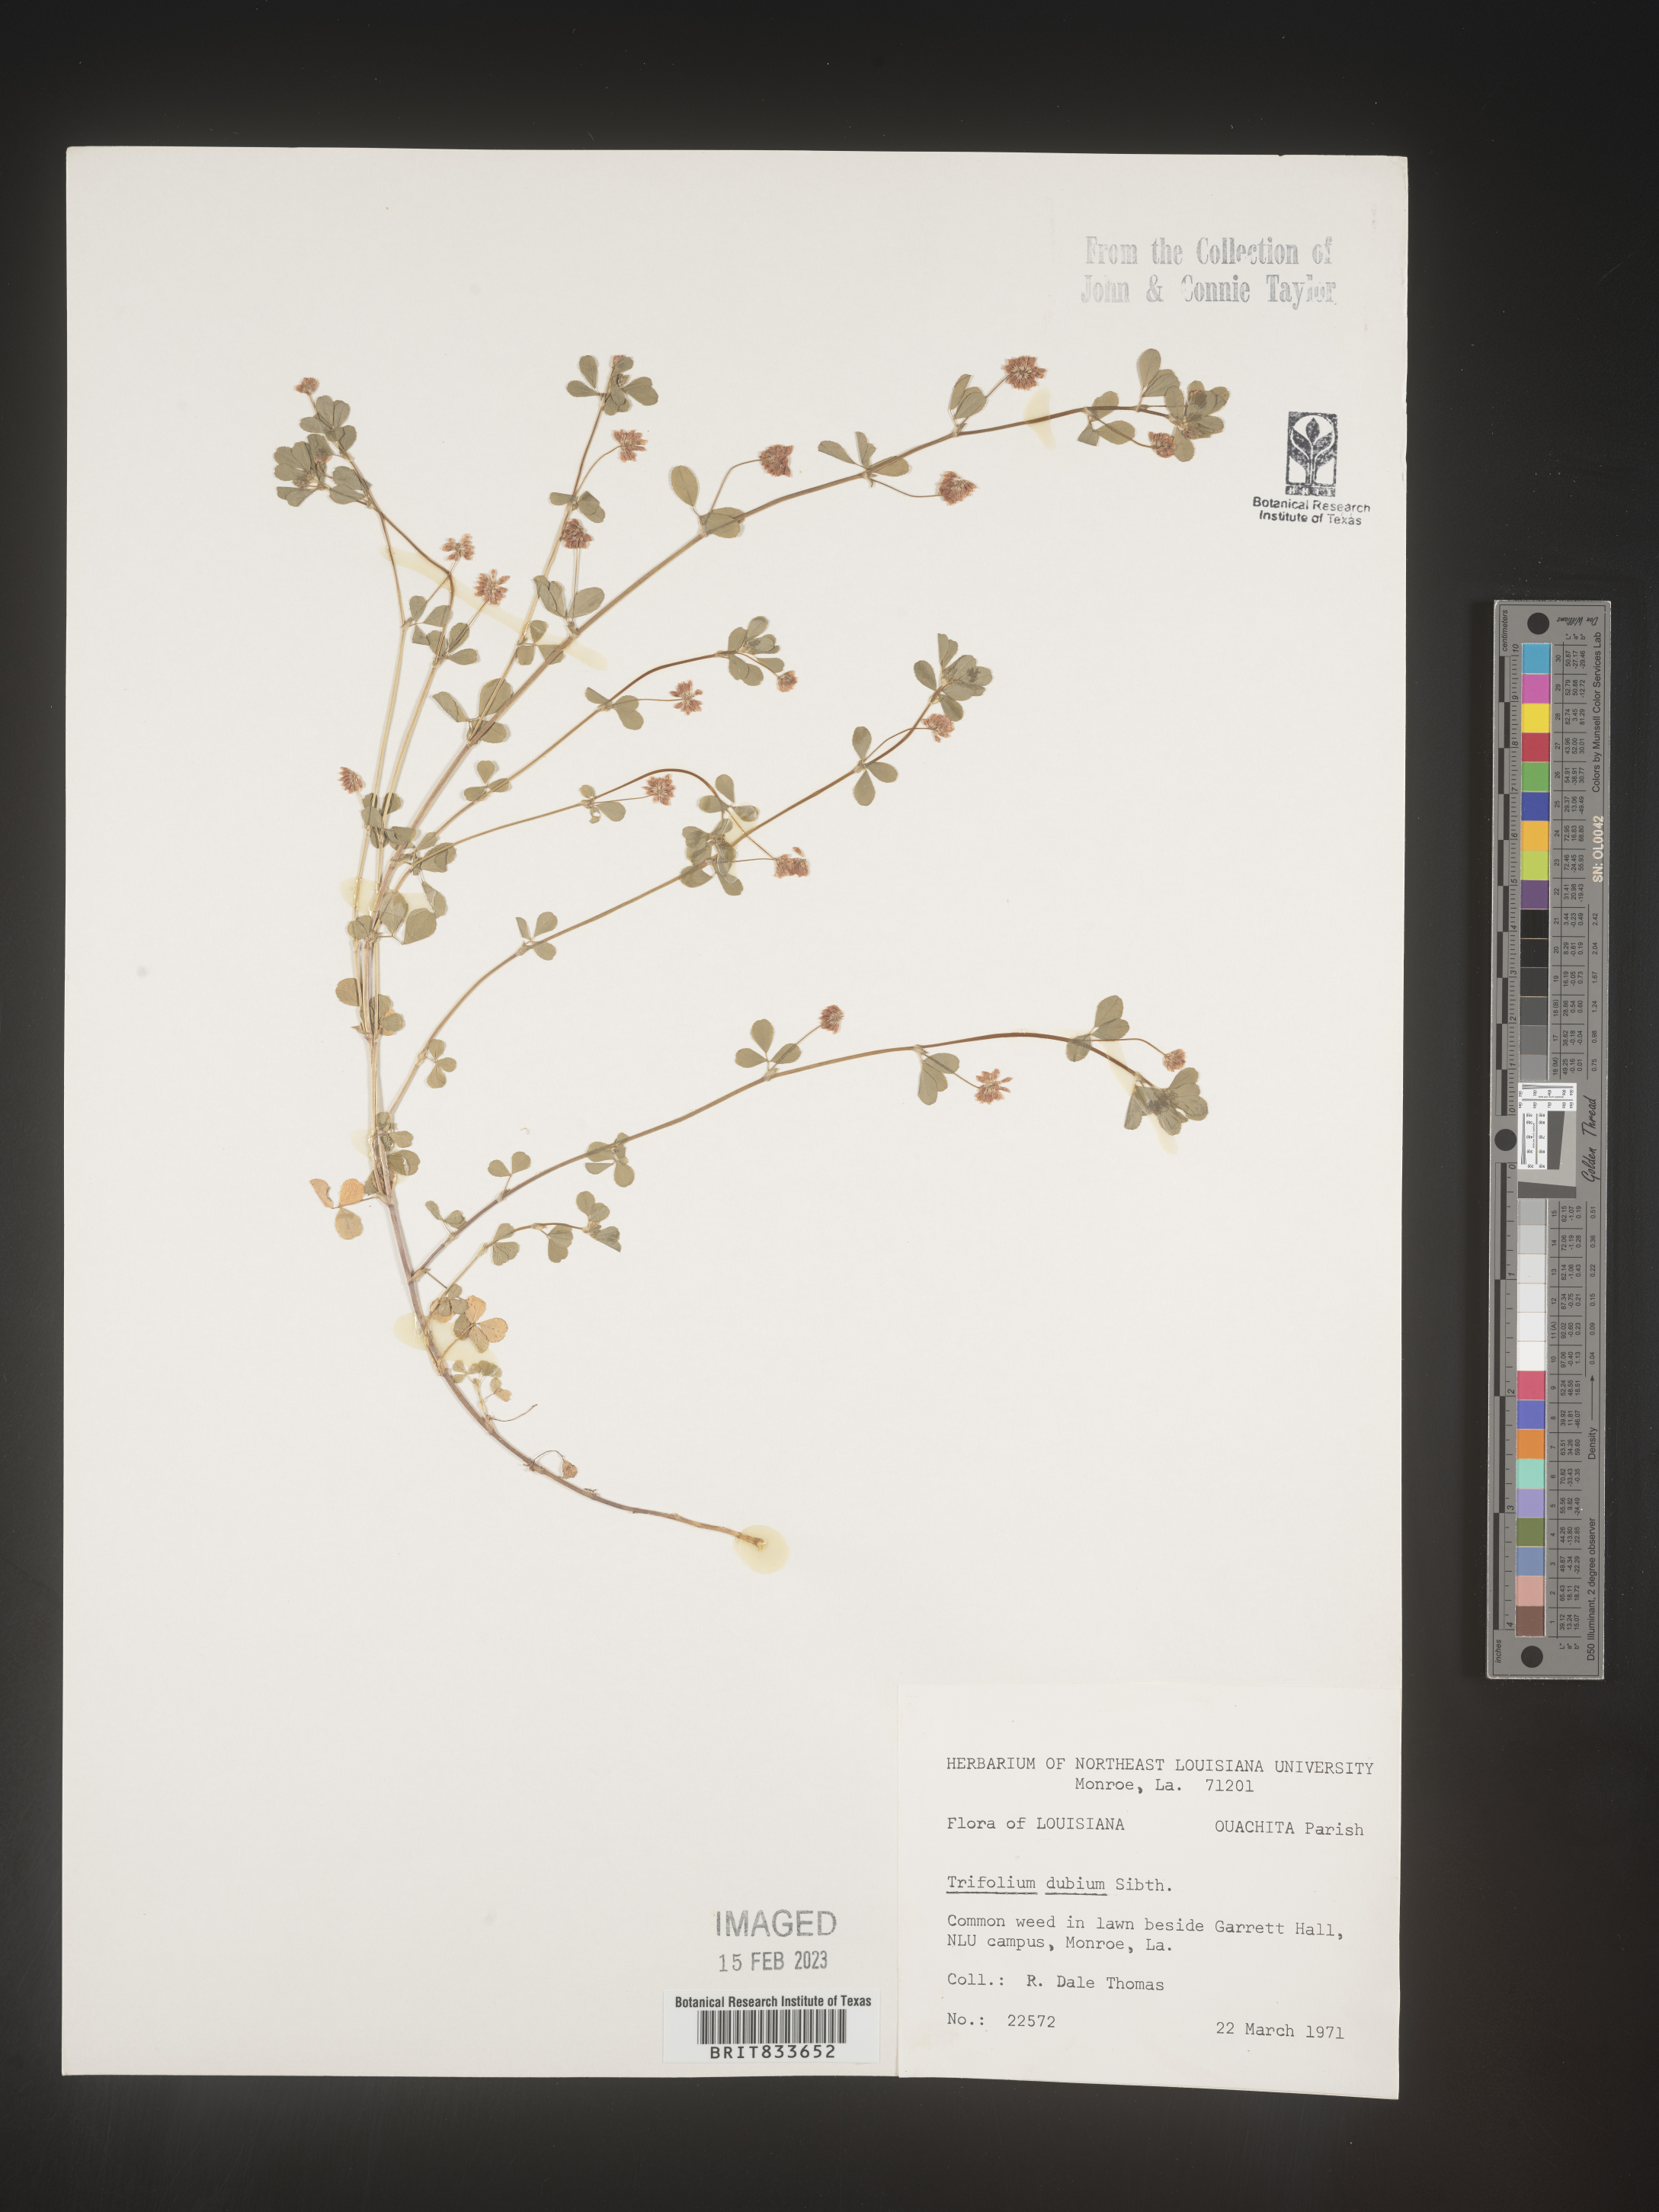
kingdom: Plantae
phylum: Tracheophyta
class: Magnoliopsida
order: Fabales
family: Fabaceae
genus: Trifolium
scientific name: Trifolium dubium
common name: Suckling clover
